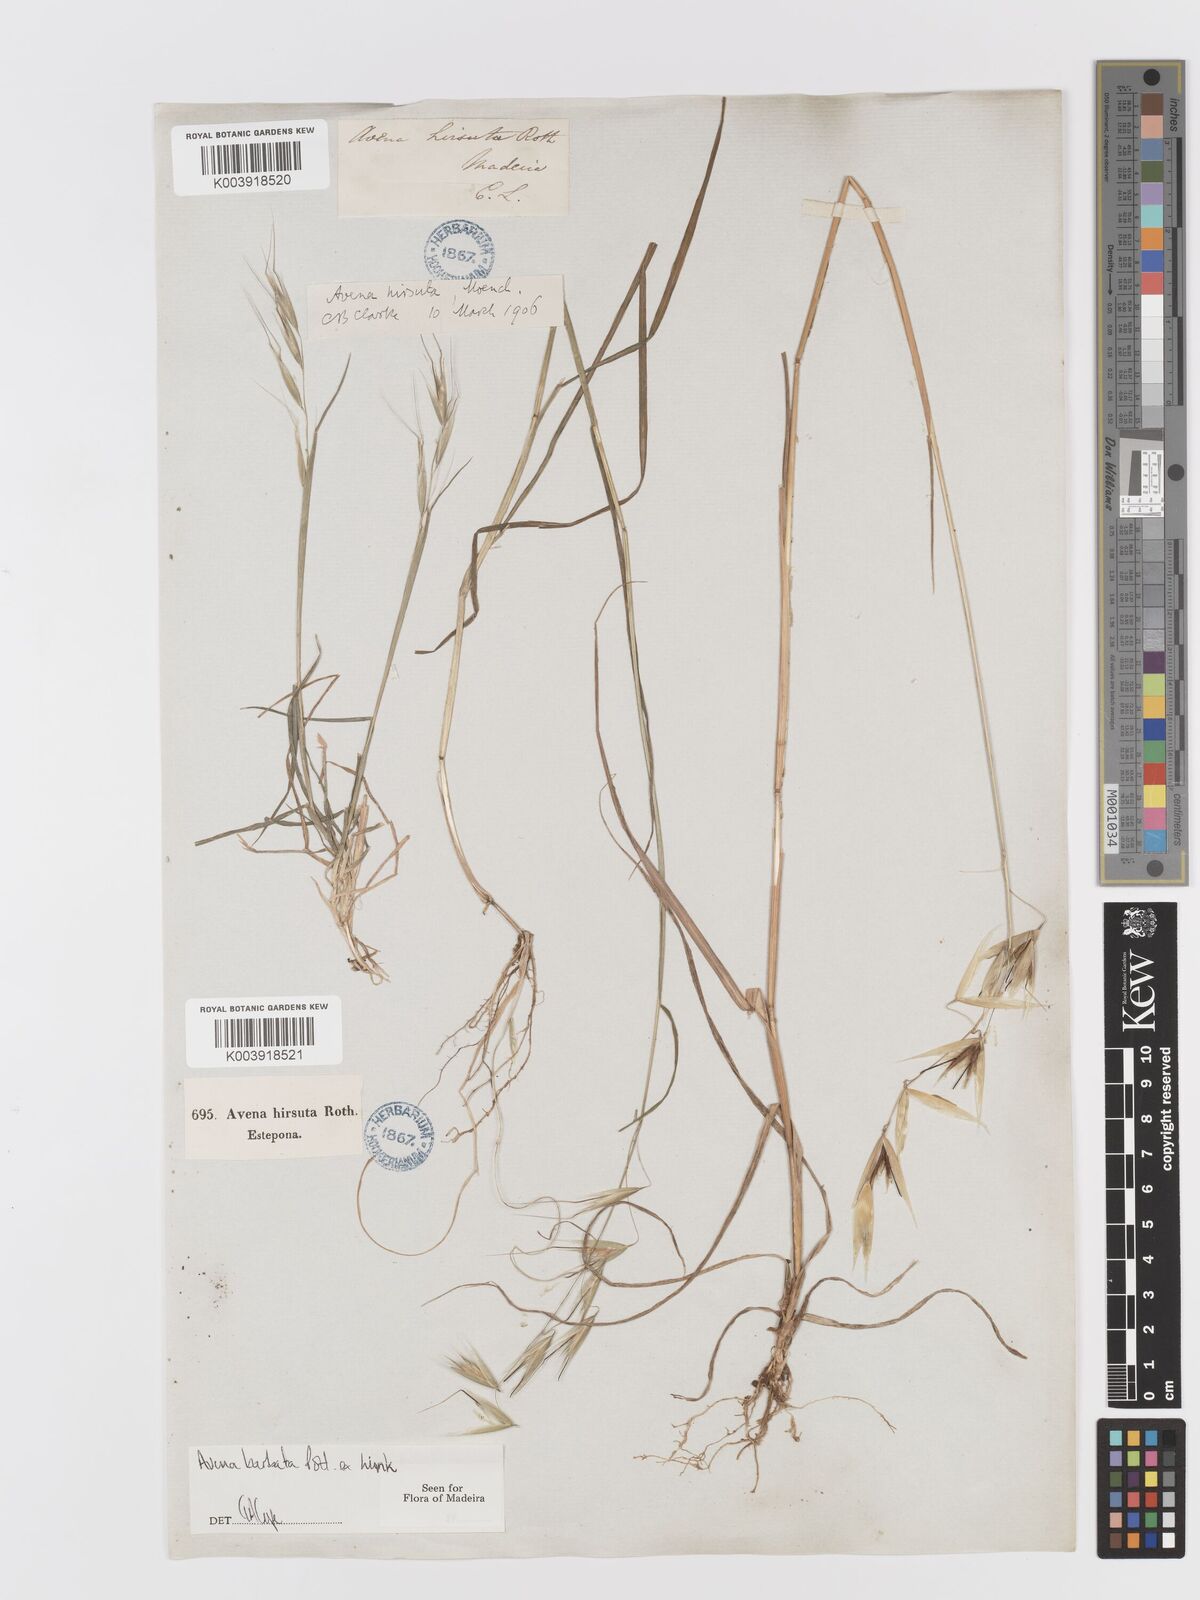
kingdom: Plantae
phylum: Tracheophyta
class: Liliopsida
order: Poales
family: Poaceae
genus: Avena
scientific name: Avena
